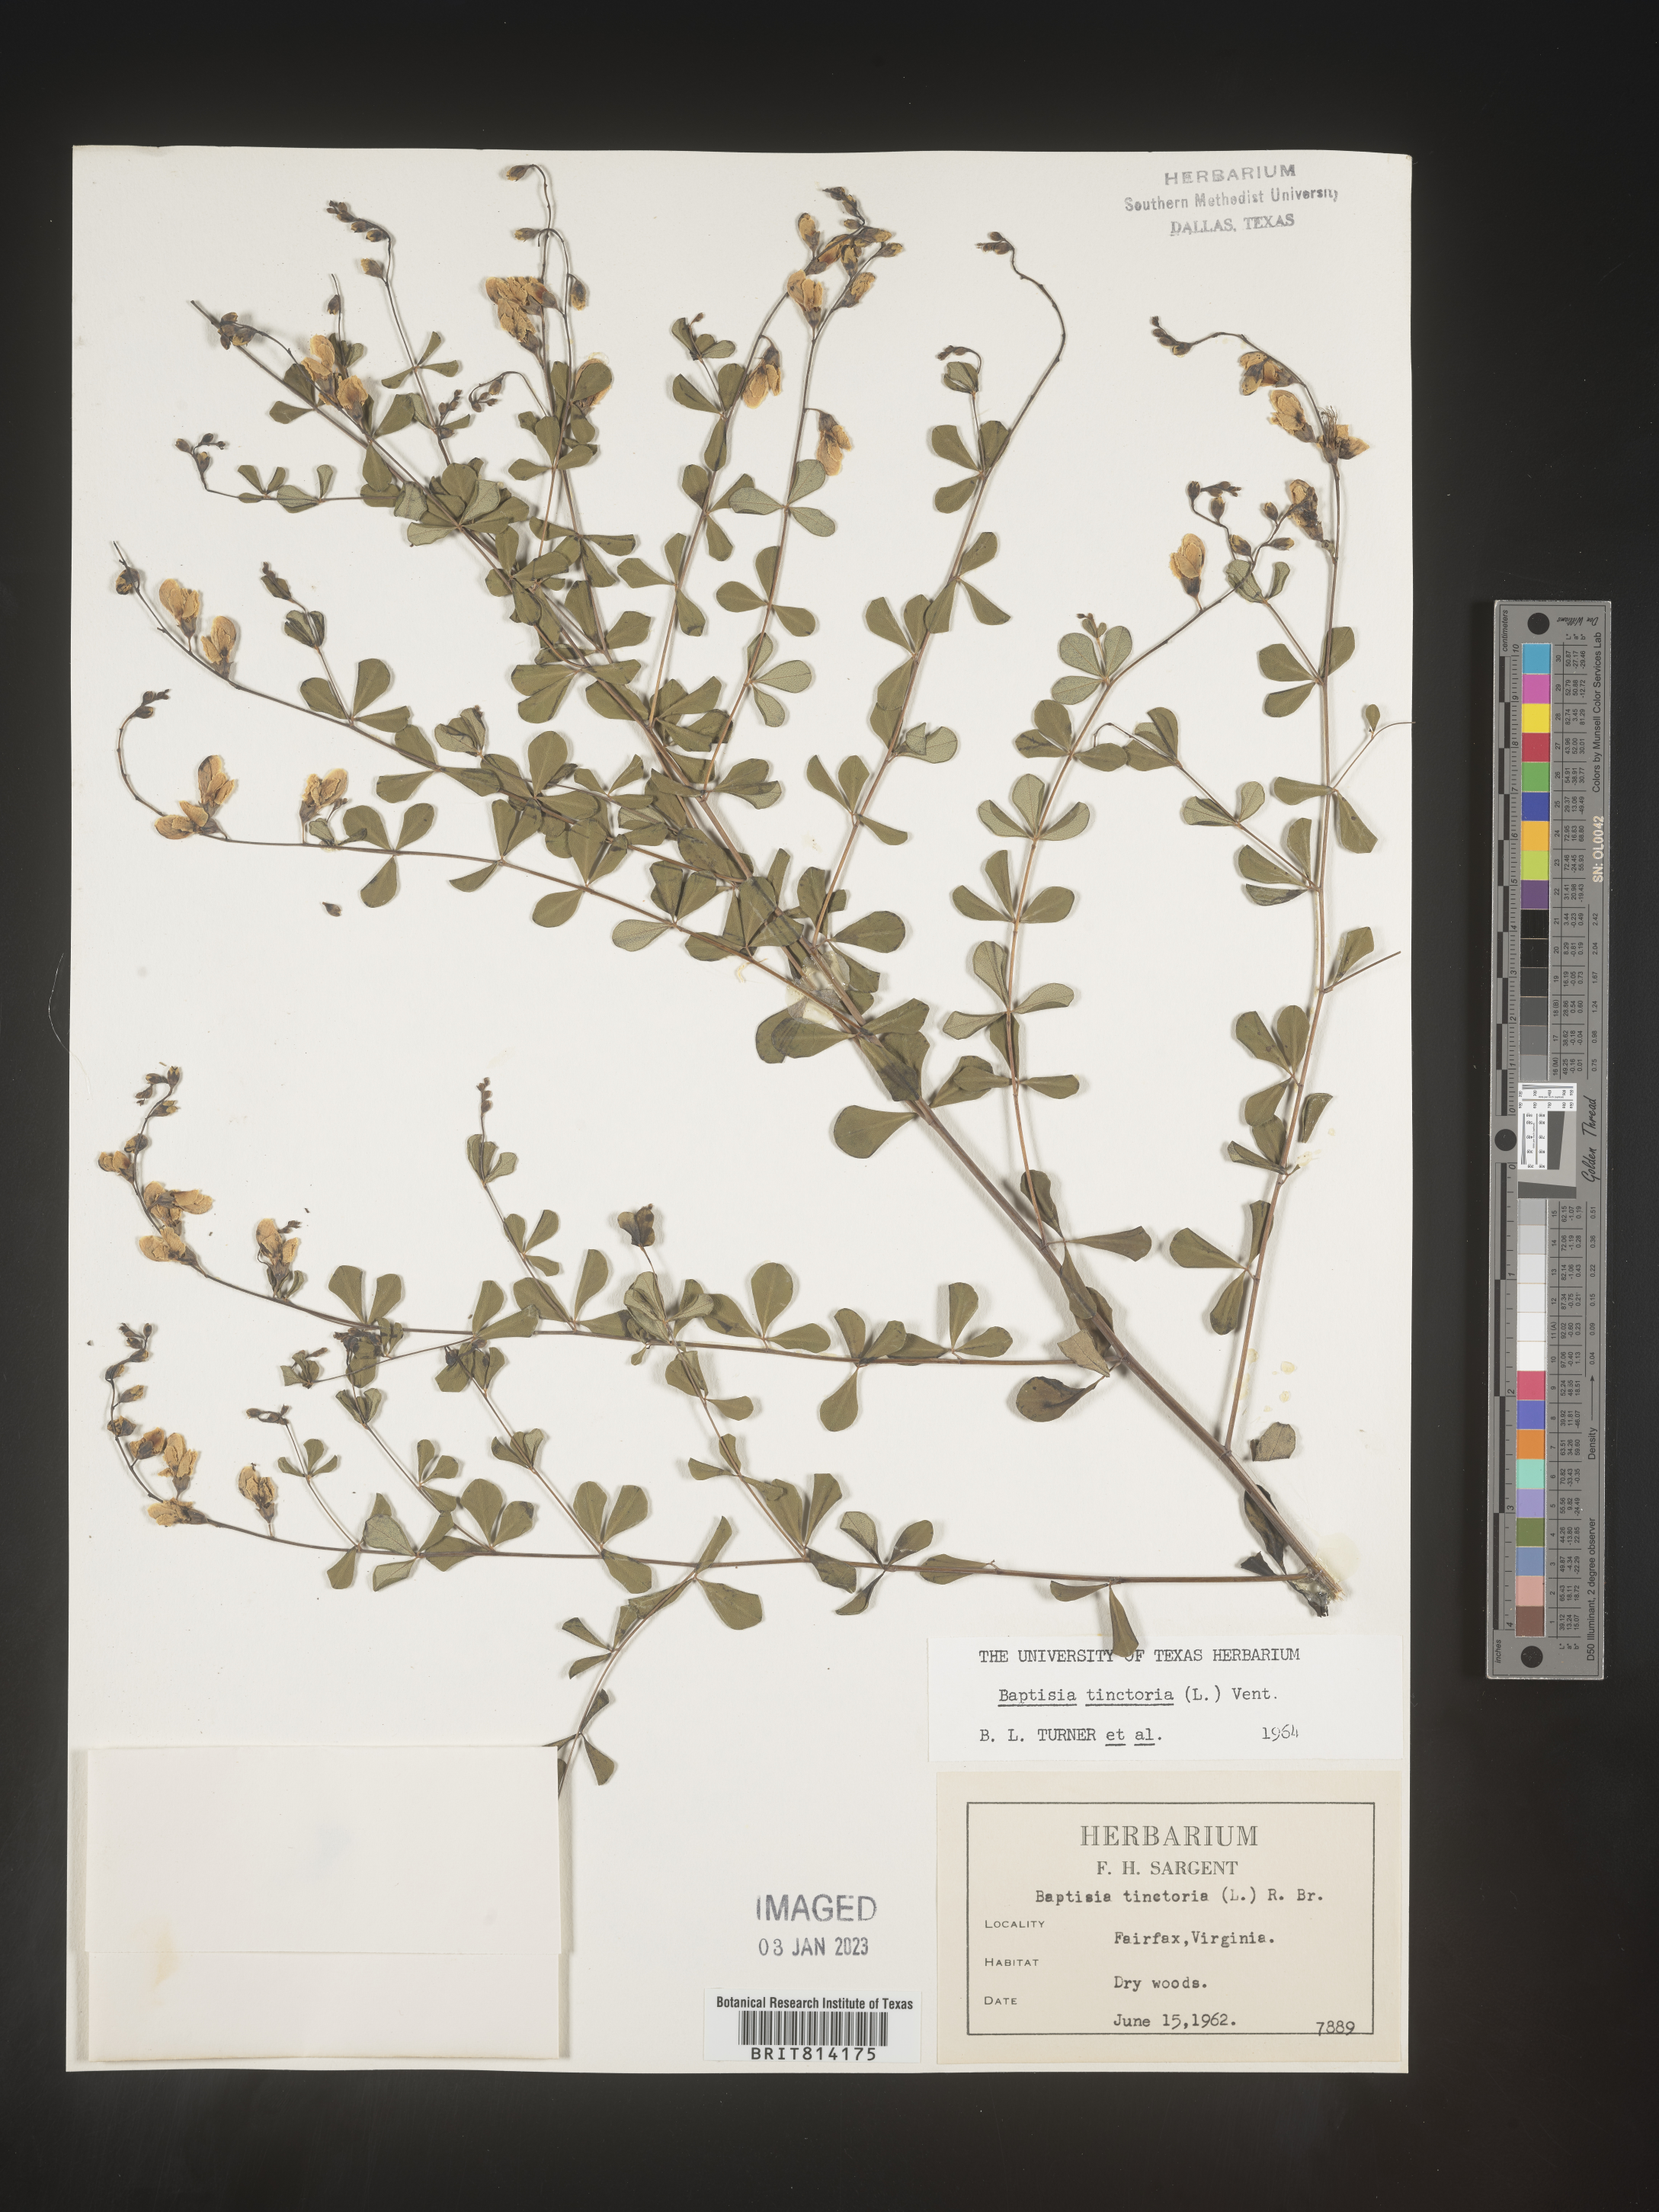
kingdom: Plantae
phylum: Tracheophyta
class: Magnoliopsida
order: Fabales
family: Fabaceae
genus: Baptisia
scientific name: Baptisia tinctoria
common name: Wild indigo
